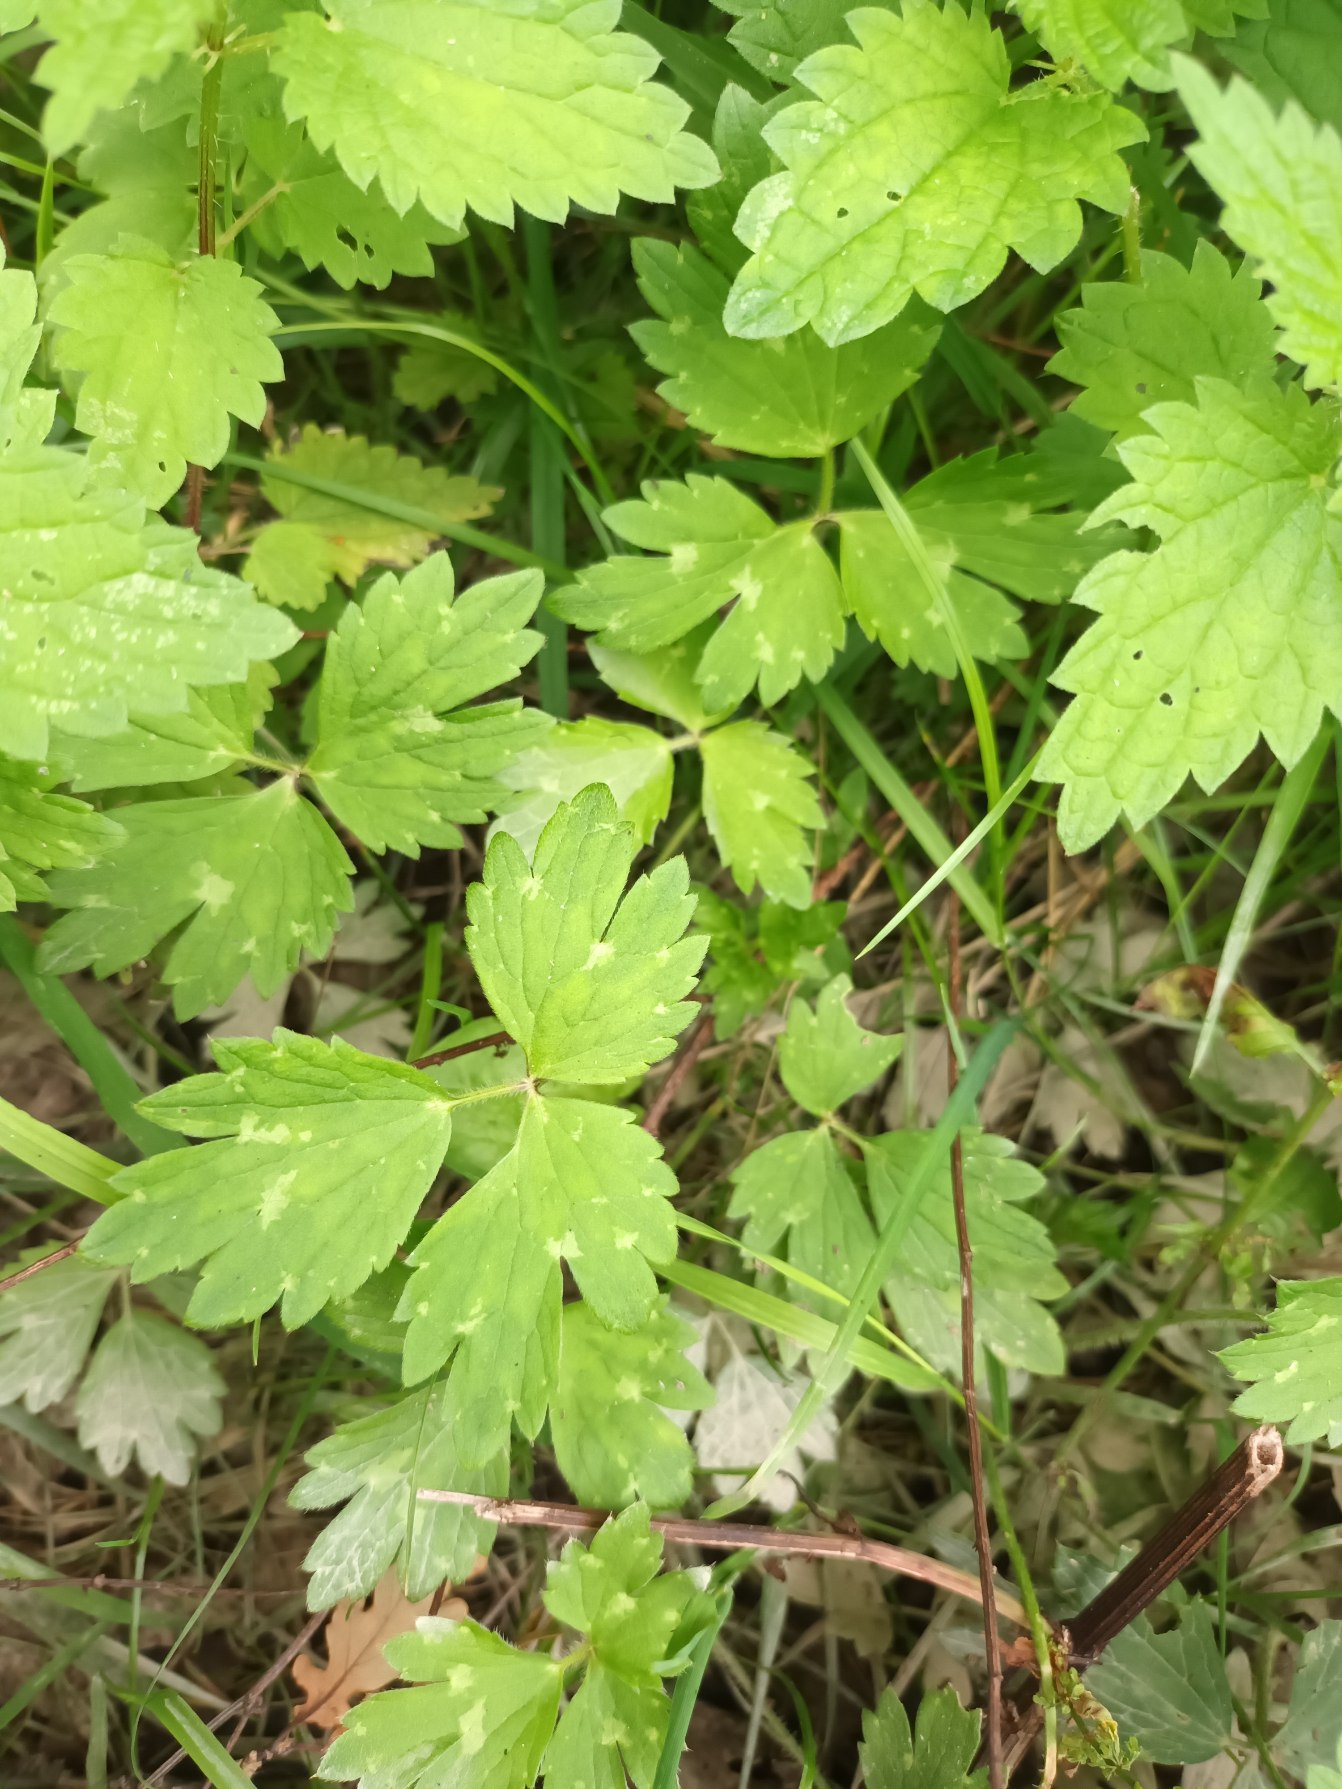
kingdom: Plantae
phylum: Tracheophyta
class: Magnoliopsida
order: Ranunculales
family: Ranunculaceae
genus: Ranunculus
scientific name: Ranunculus repens
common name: Lav ranunkel
